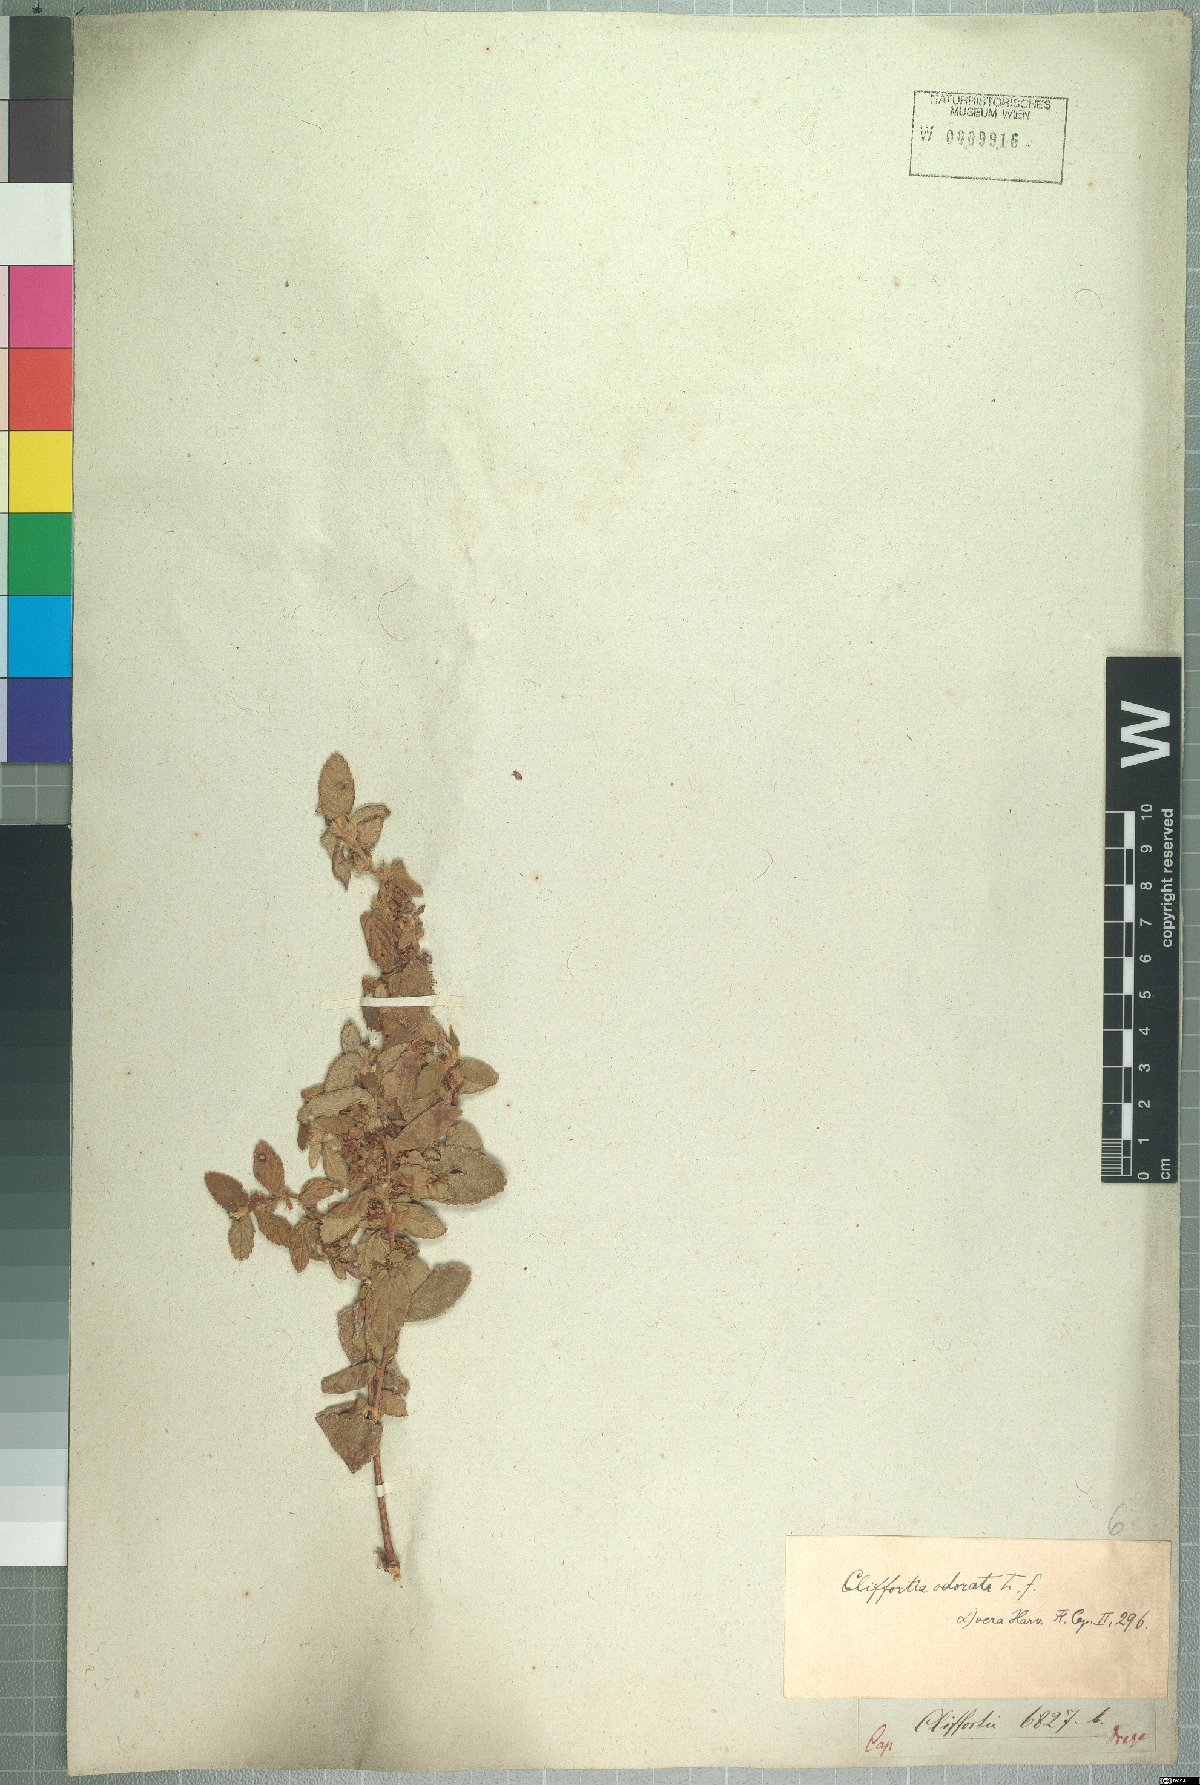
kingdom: Plantae
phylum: Tracheophyta
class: Magnoliopsida
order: Rosales
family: Rosaceae
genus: Cliffortia
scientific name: Cliffortia odorata
